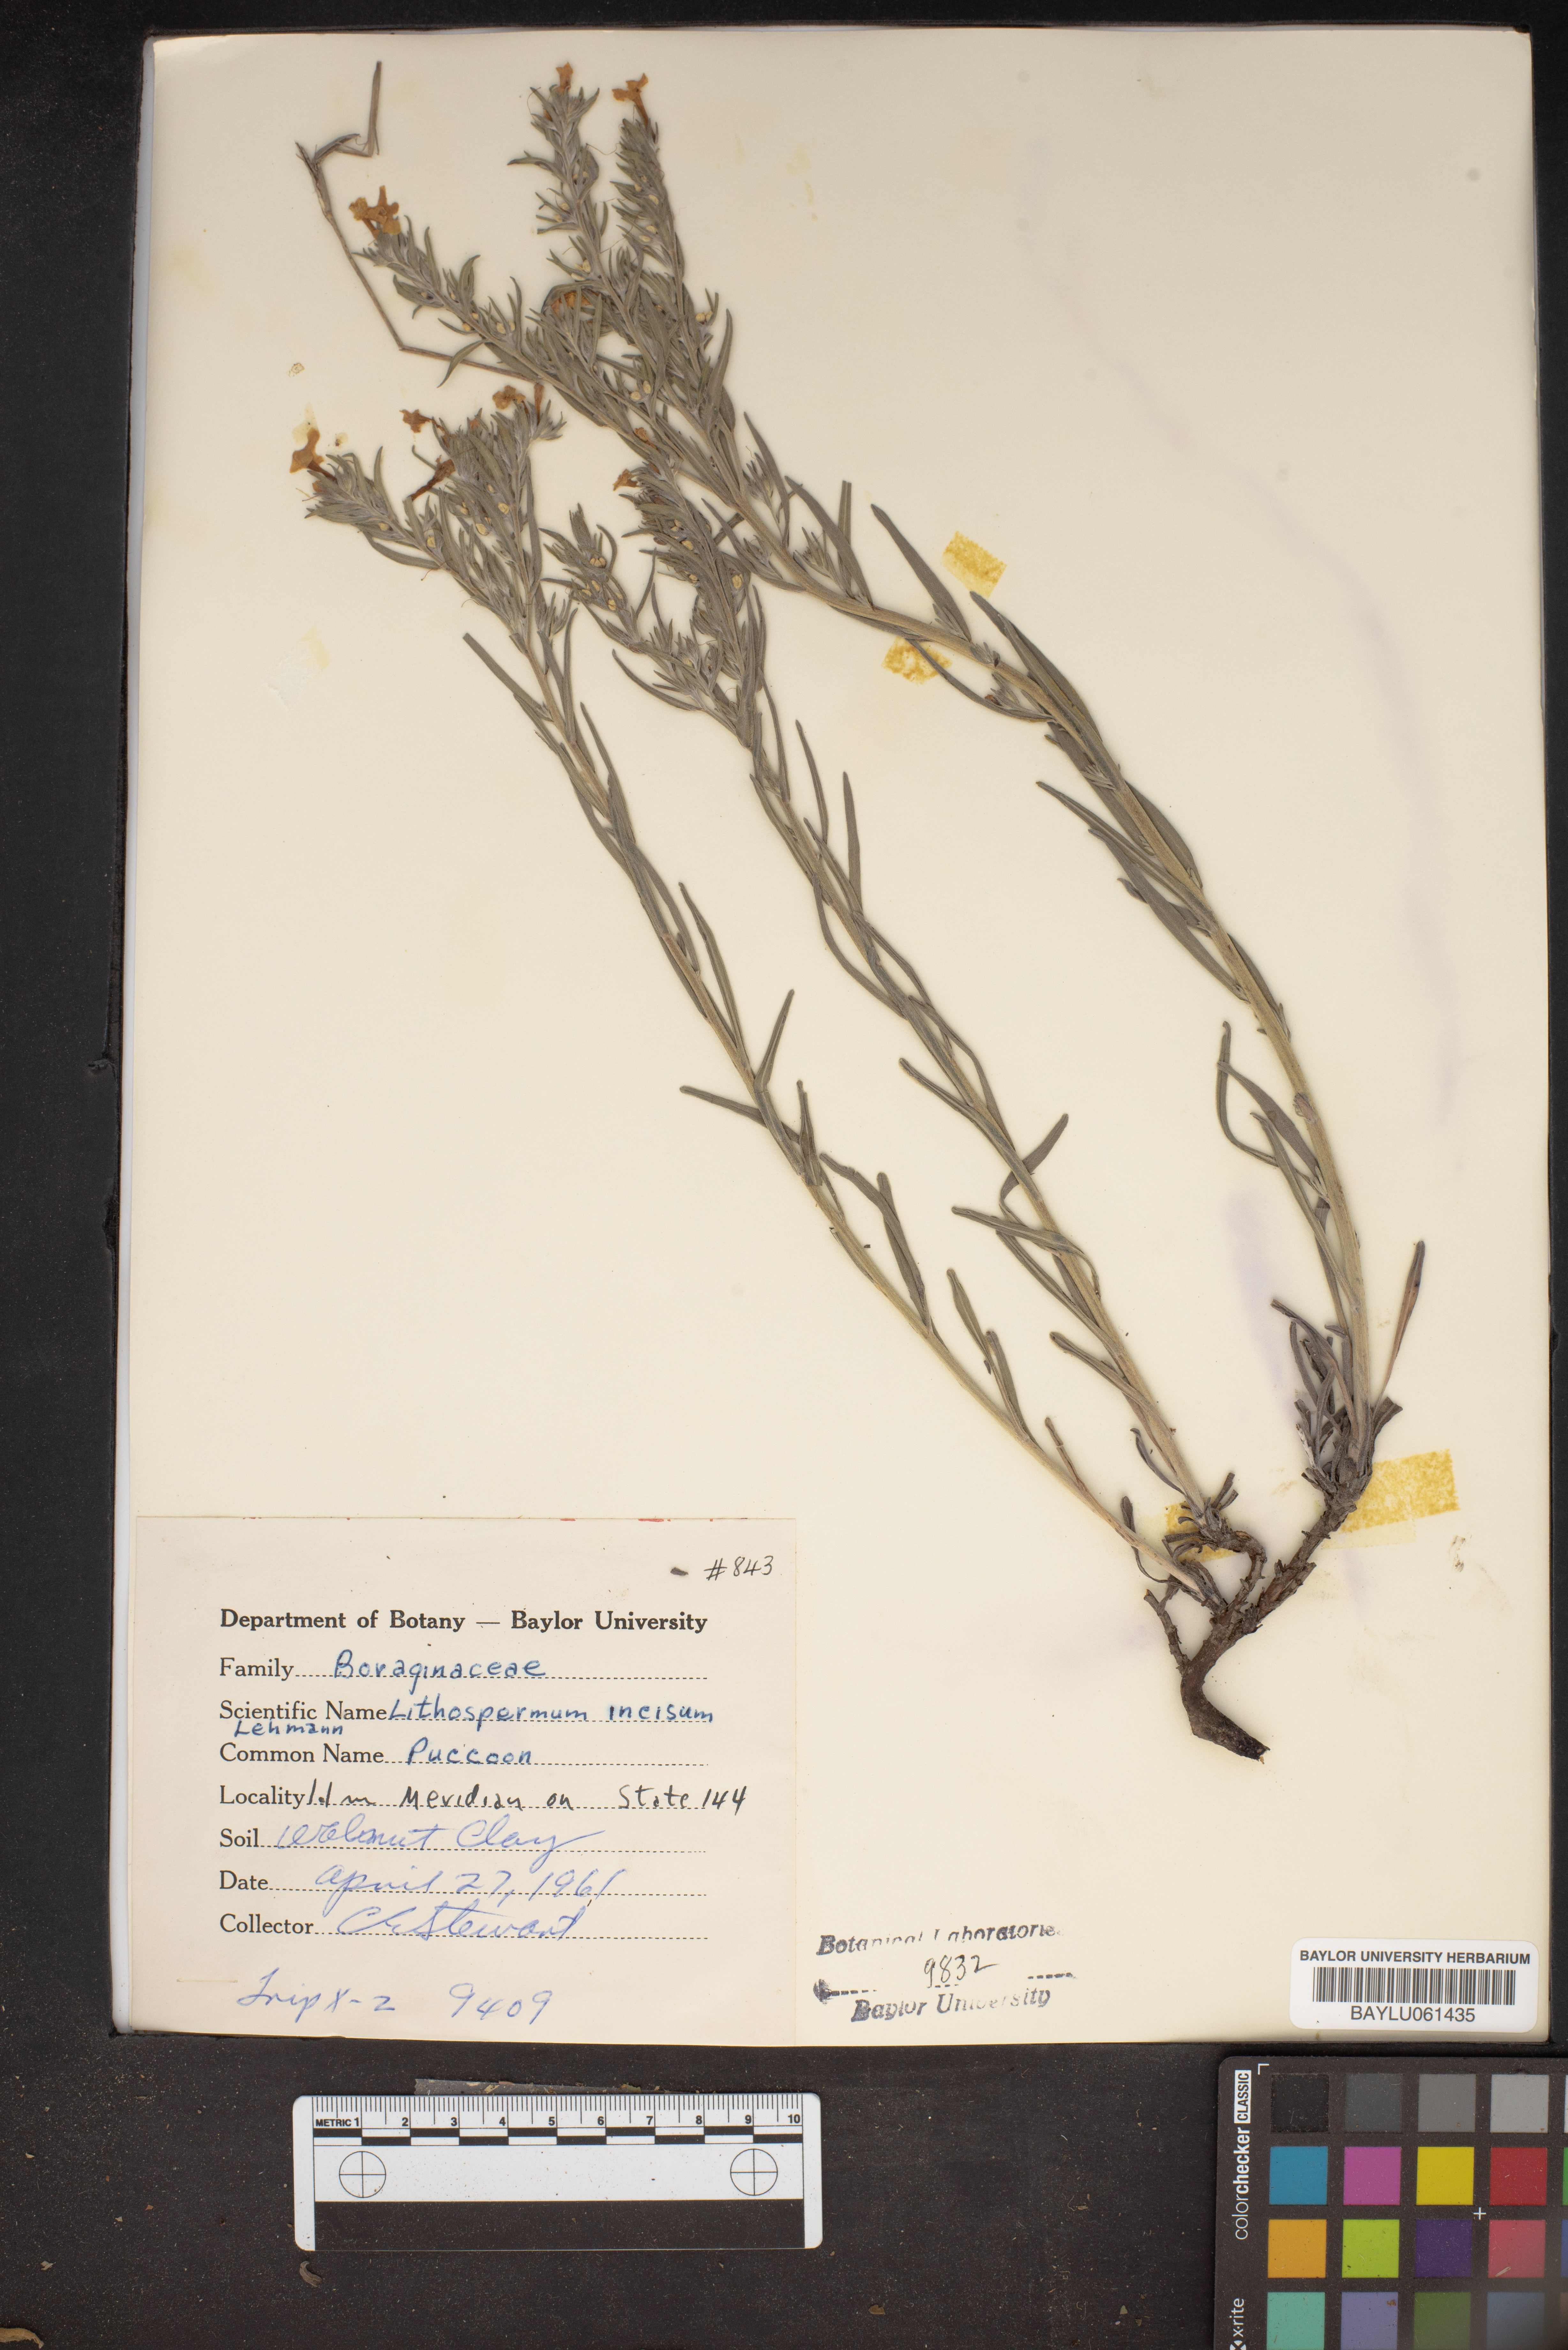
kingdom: Plantae
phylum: Tracheophyta
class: Magnoliopsida
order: Boraginales
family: Boraginaceae
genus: Lithospermum
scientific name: Lithospermum incisum
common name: Fringed gromwell
